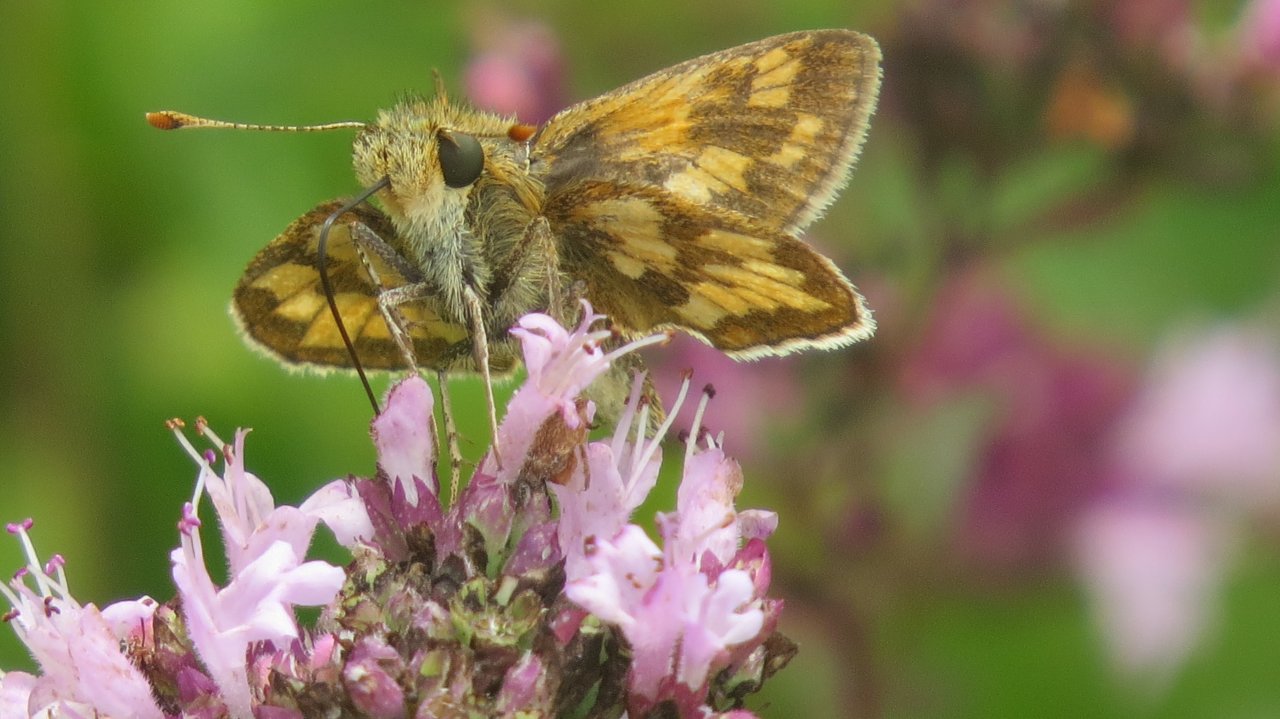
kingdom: Animalia
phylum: Arthropoda
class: Insecta
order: Lepidoptera
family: Hesperiidae
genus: Polites
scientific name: Polites coras
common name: Peck's Skipper
